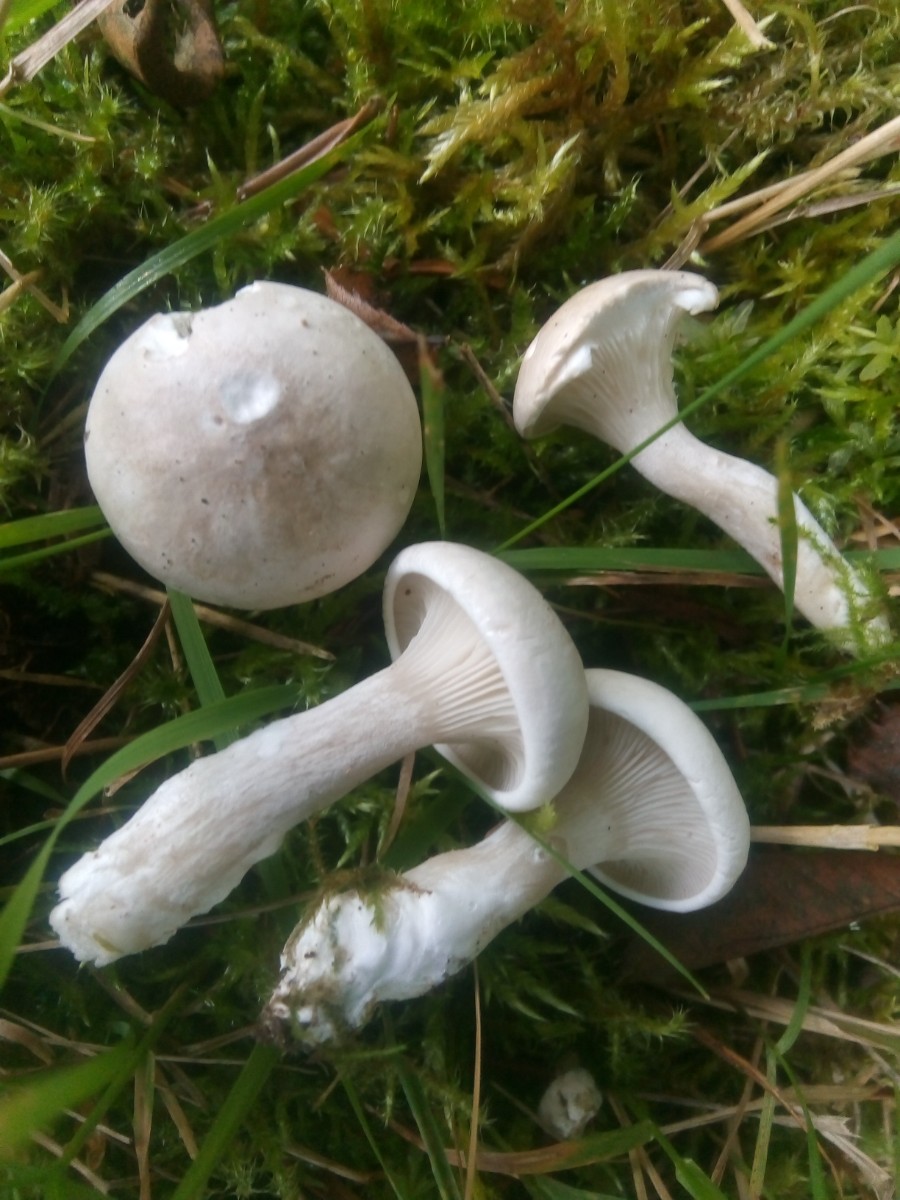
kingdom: Fungi
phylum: Basidiomycota
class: Agaricomycetes
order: Agaricales
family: Entolomataceae
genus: Clitopilus
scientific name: Clitopilus prunulus
